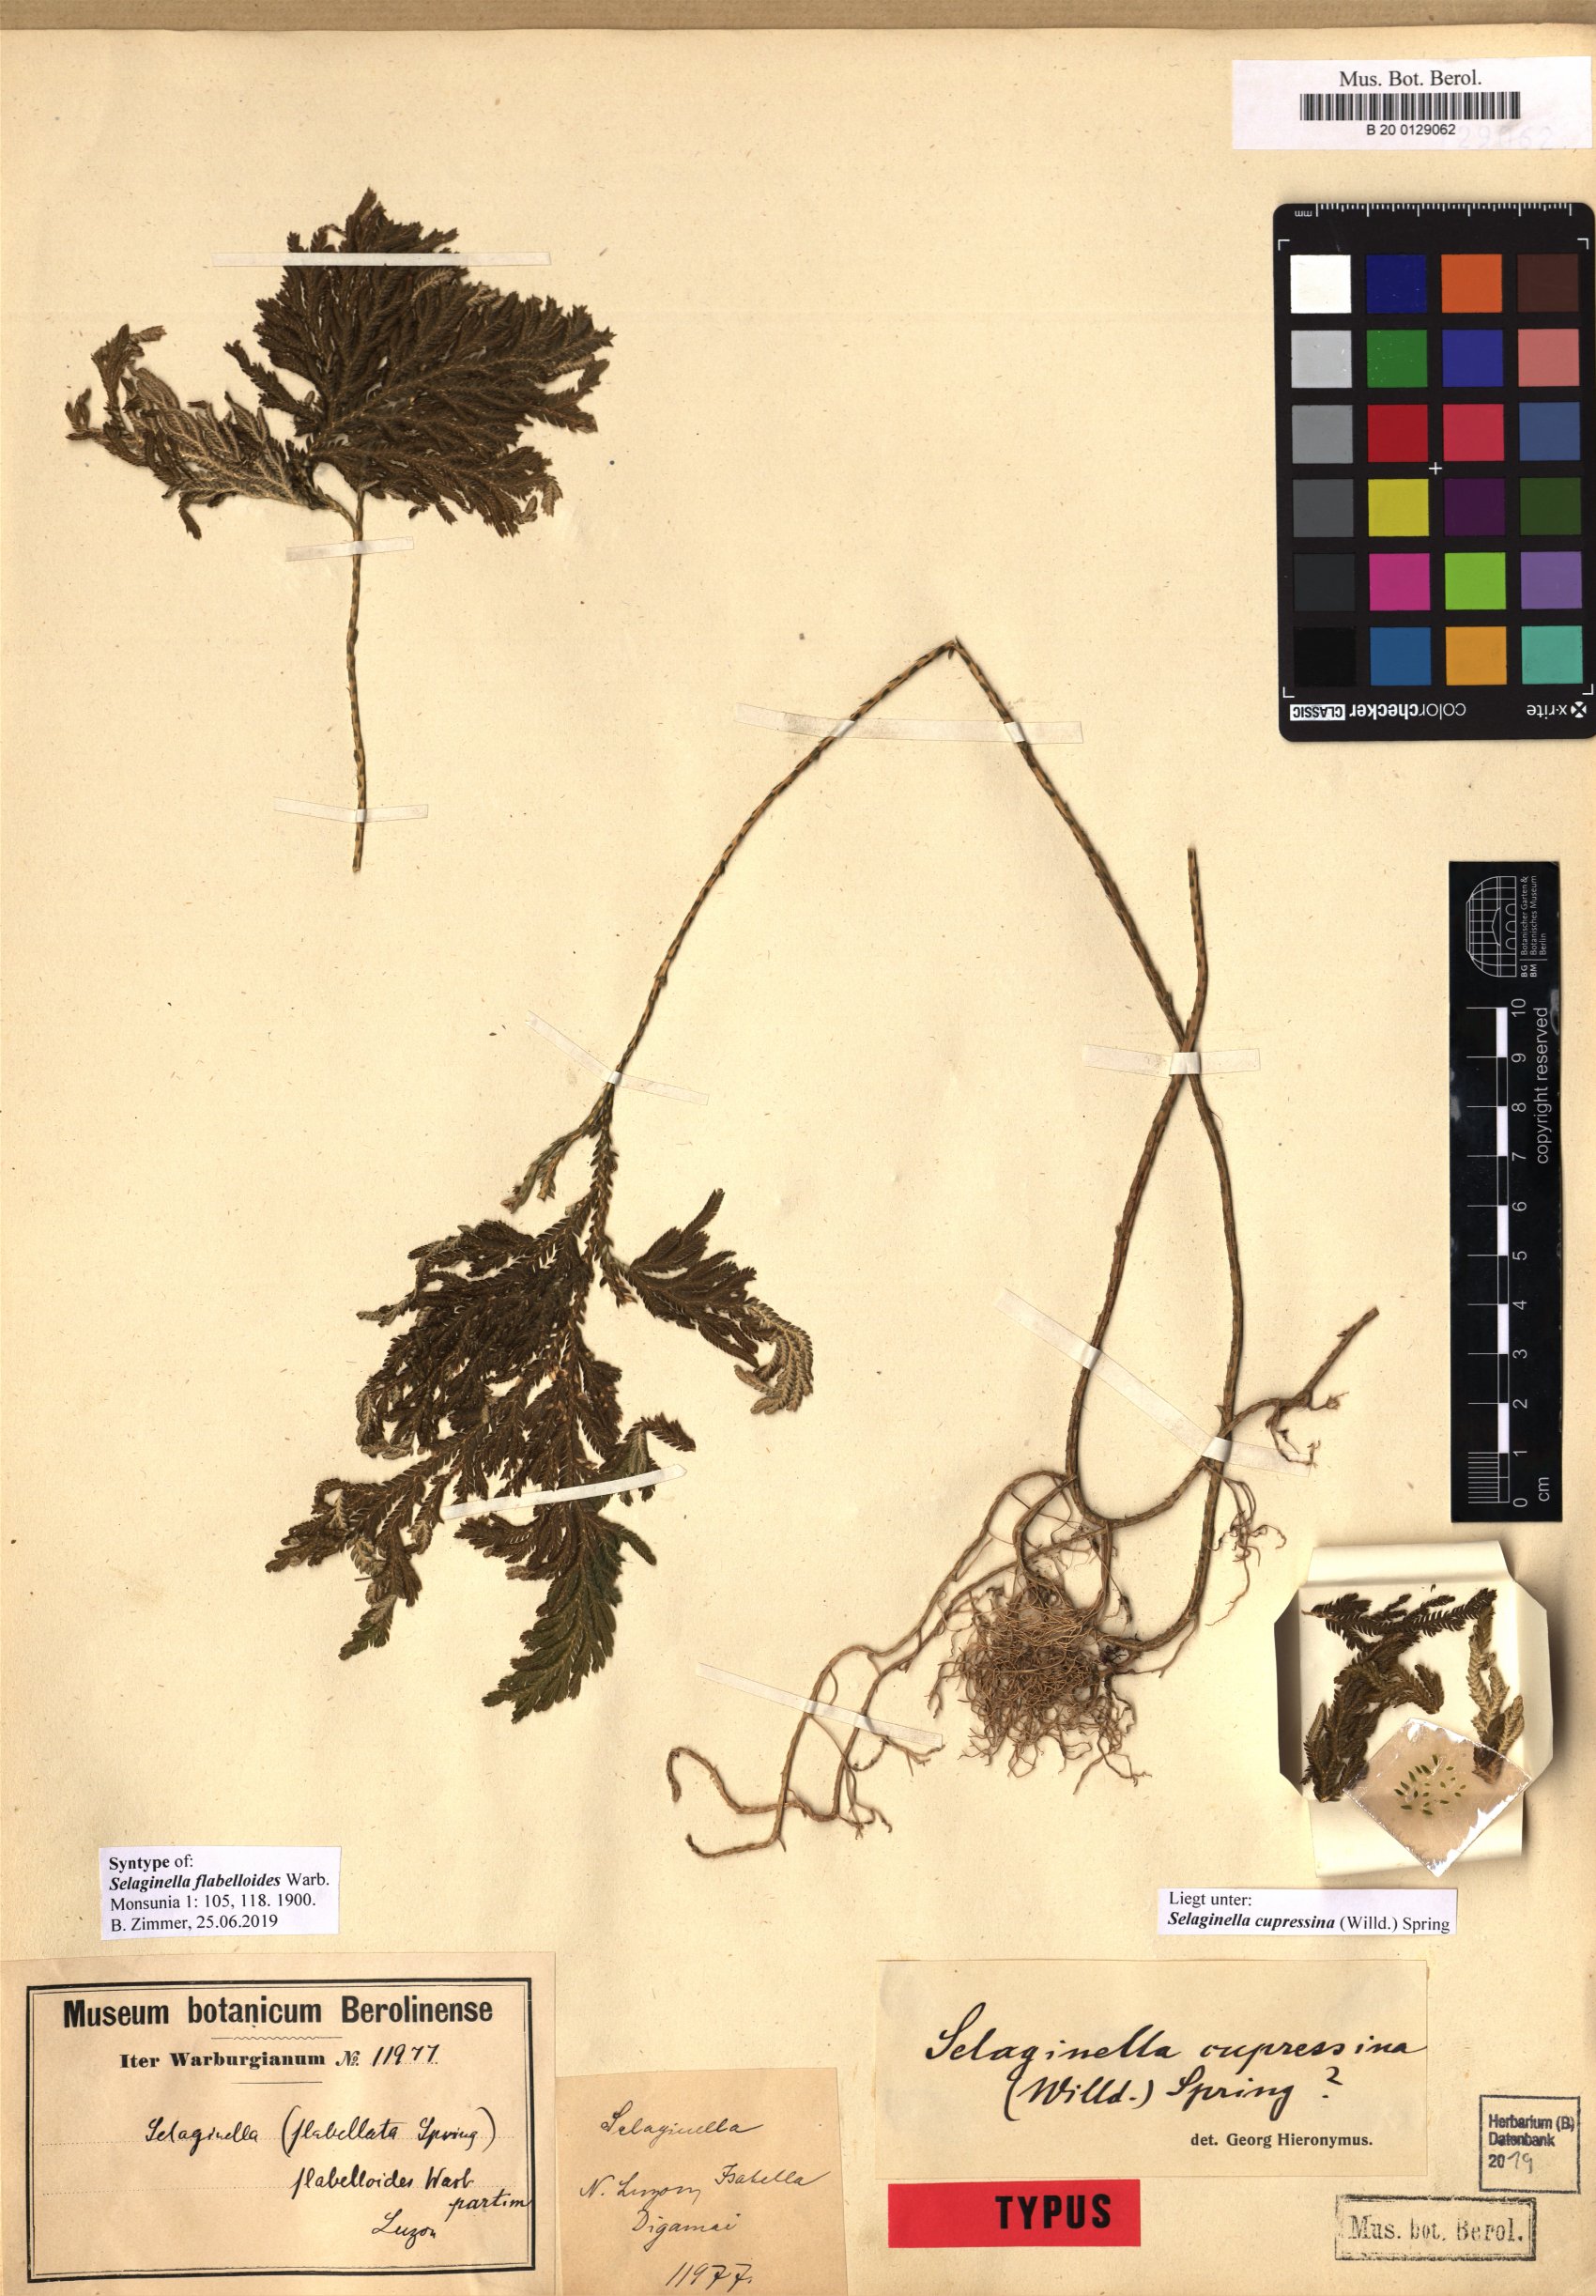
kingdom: Plantae
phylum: Tracheophyta
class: Lycopodiopsida
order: Selaginellales
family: Selaginellaceae
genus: Selaginella
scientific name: Selaginella cupressina
